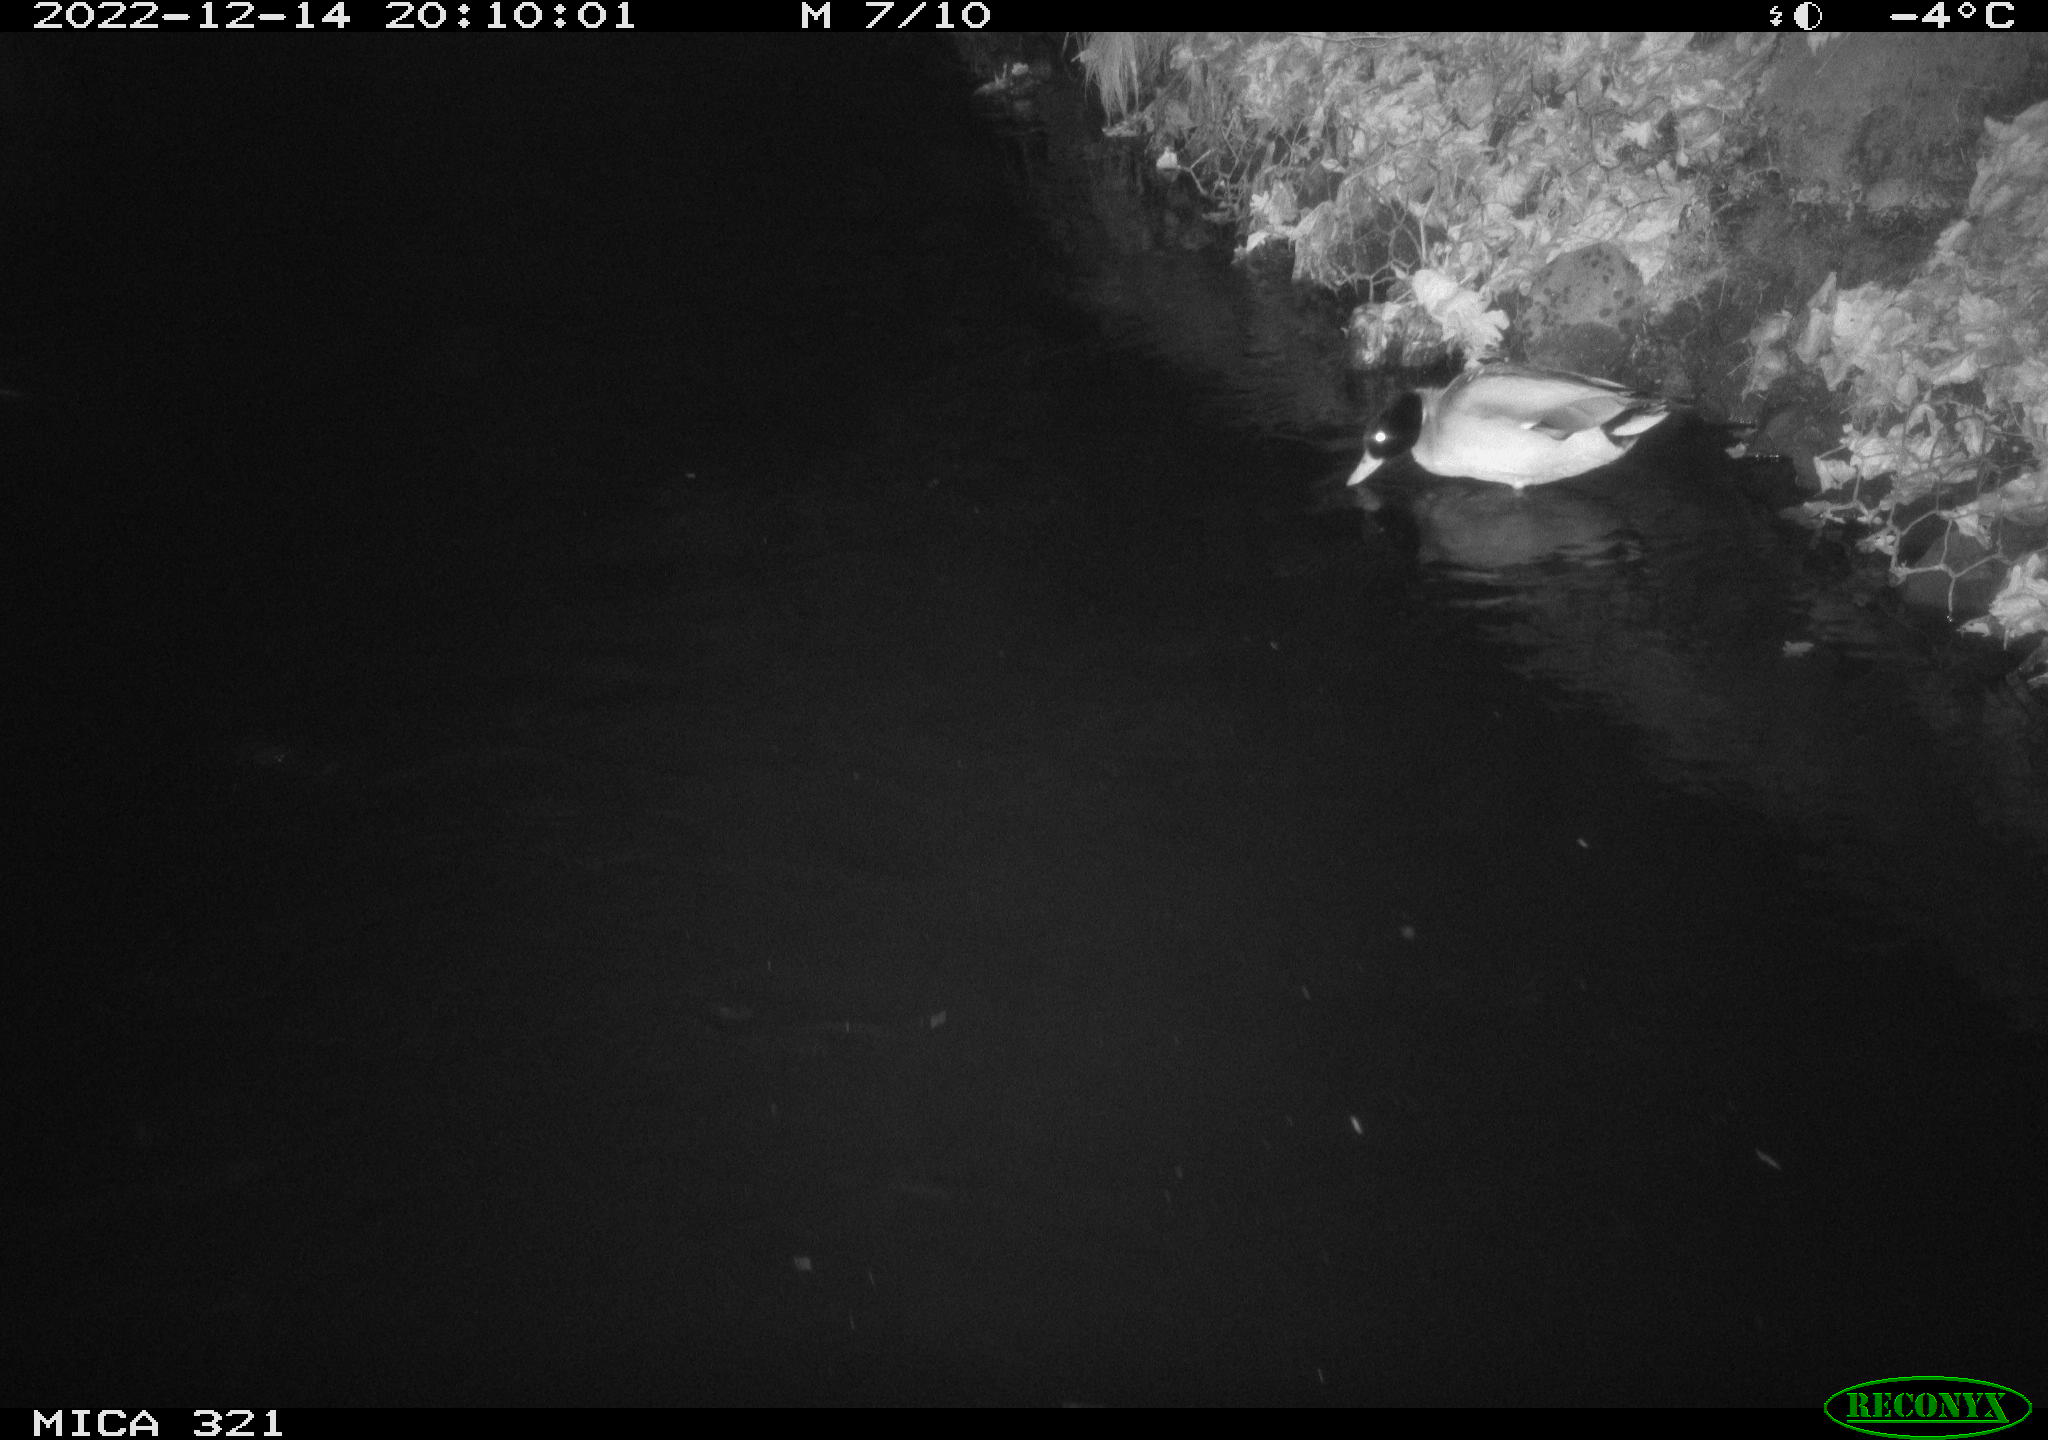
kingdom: Animalia
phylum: Chordata
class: Aves
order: Anseriformes
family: Anatidae
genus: Anas
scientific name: Anas
